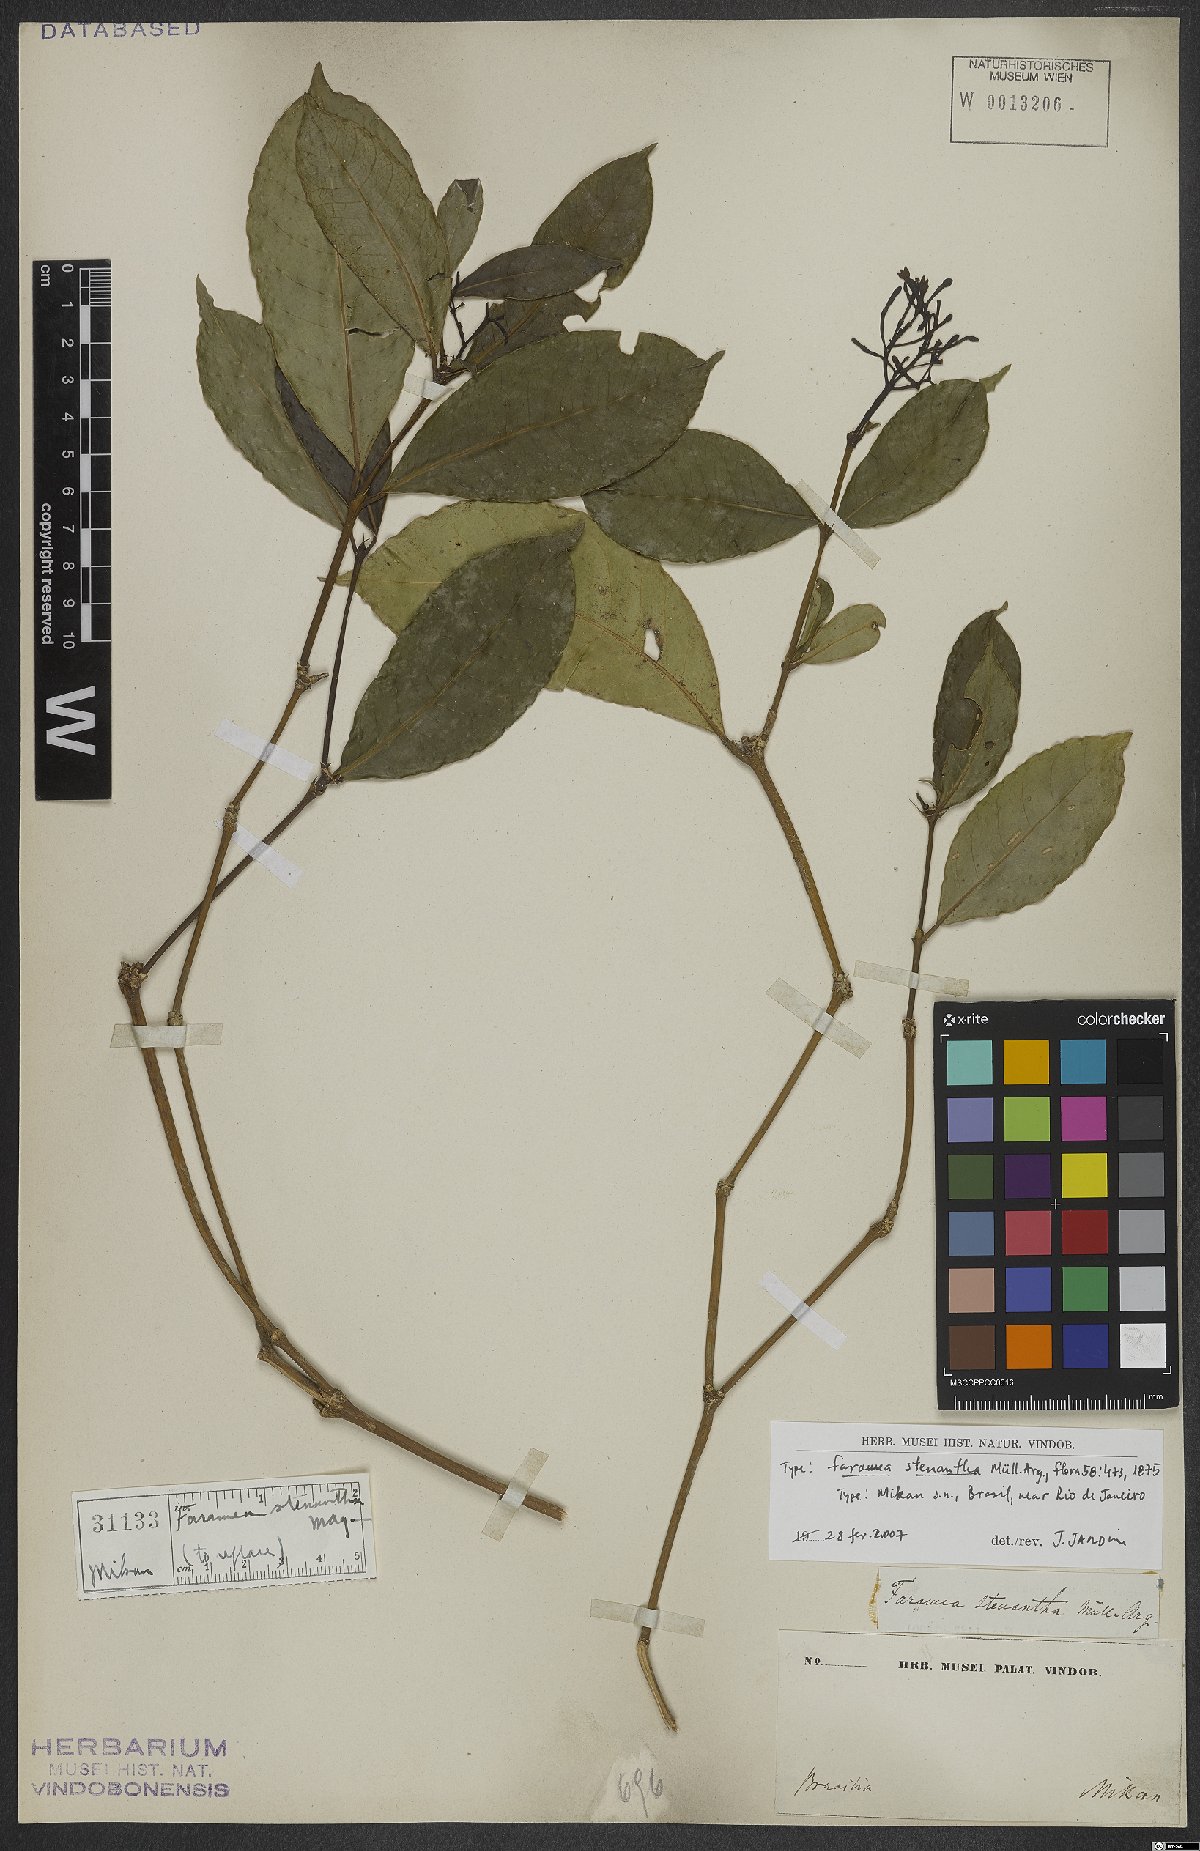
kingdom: Plantae
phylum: Tracheophyta
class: Magnoliopsida
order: Gentianales
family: Rubiaceae
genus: Faramea
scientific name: Faramea stenantha
